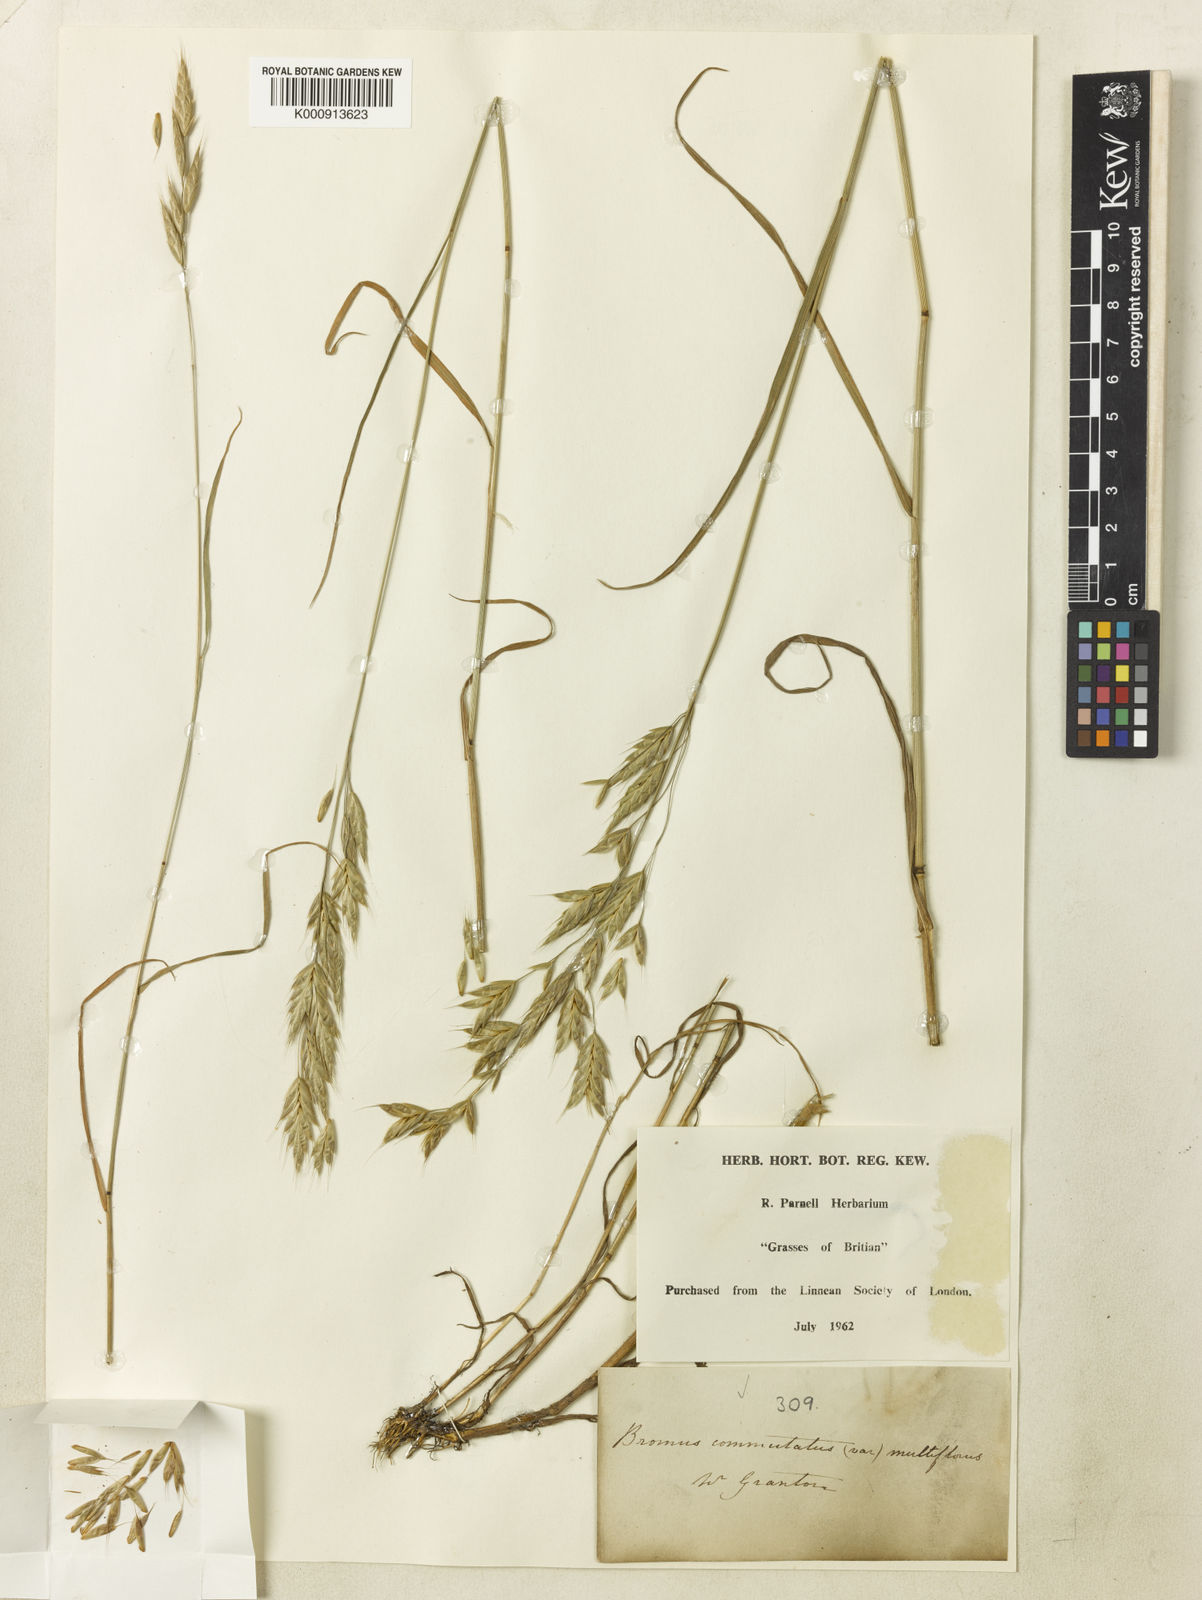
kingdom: Plantae
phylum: Tracheophyta
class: Liliopsida
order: Poales
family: Poaceae
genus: Bromus
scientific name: Bromus commutatus
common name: Meadow brome
